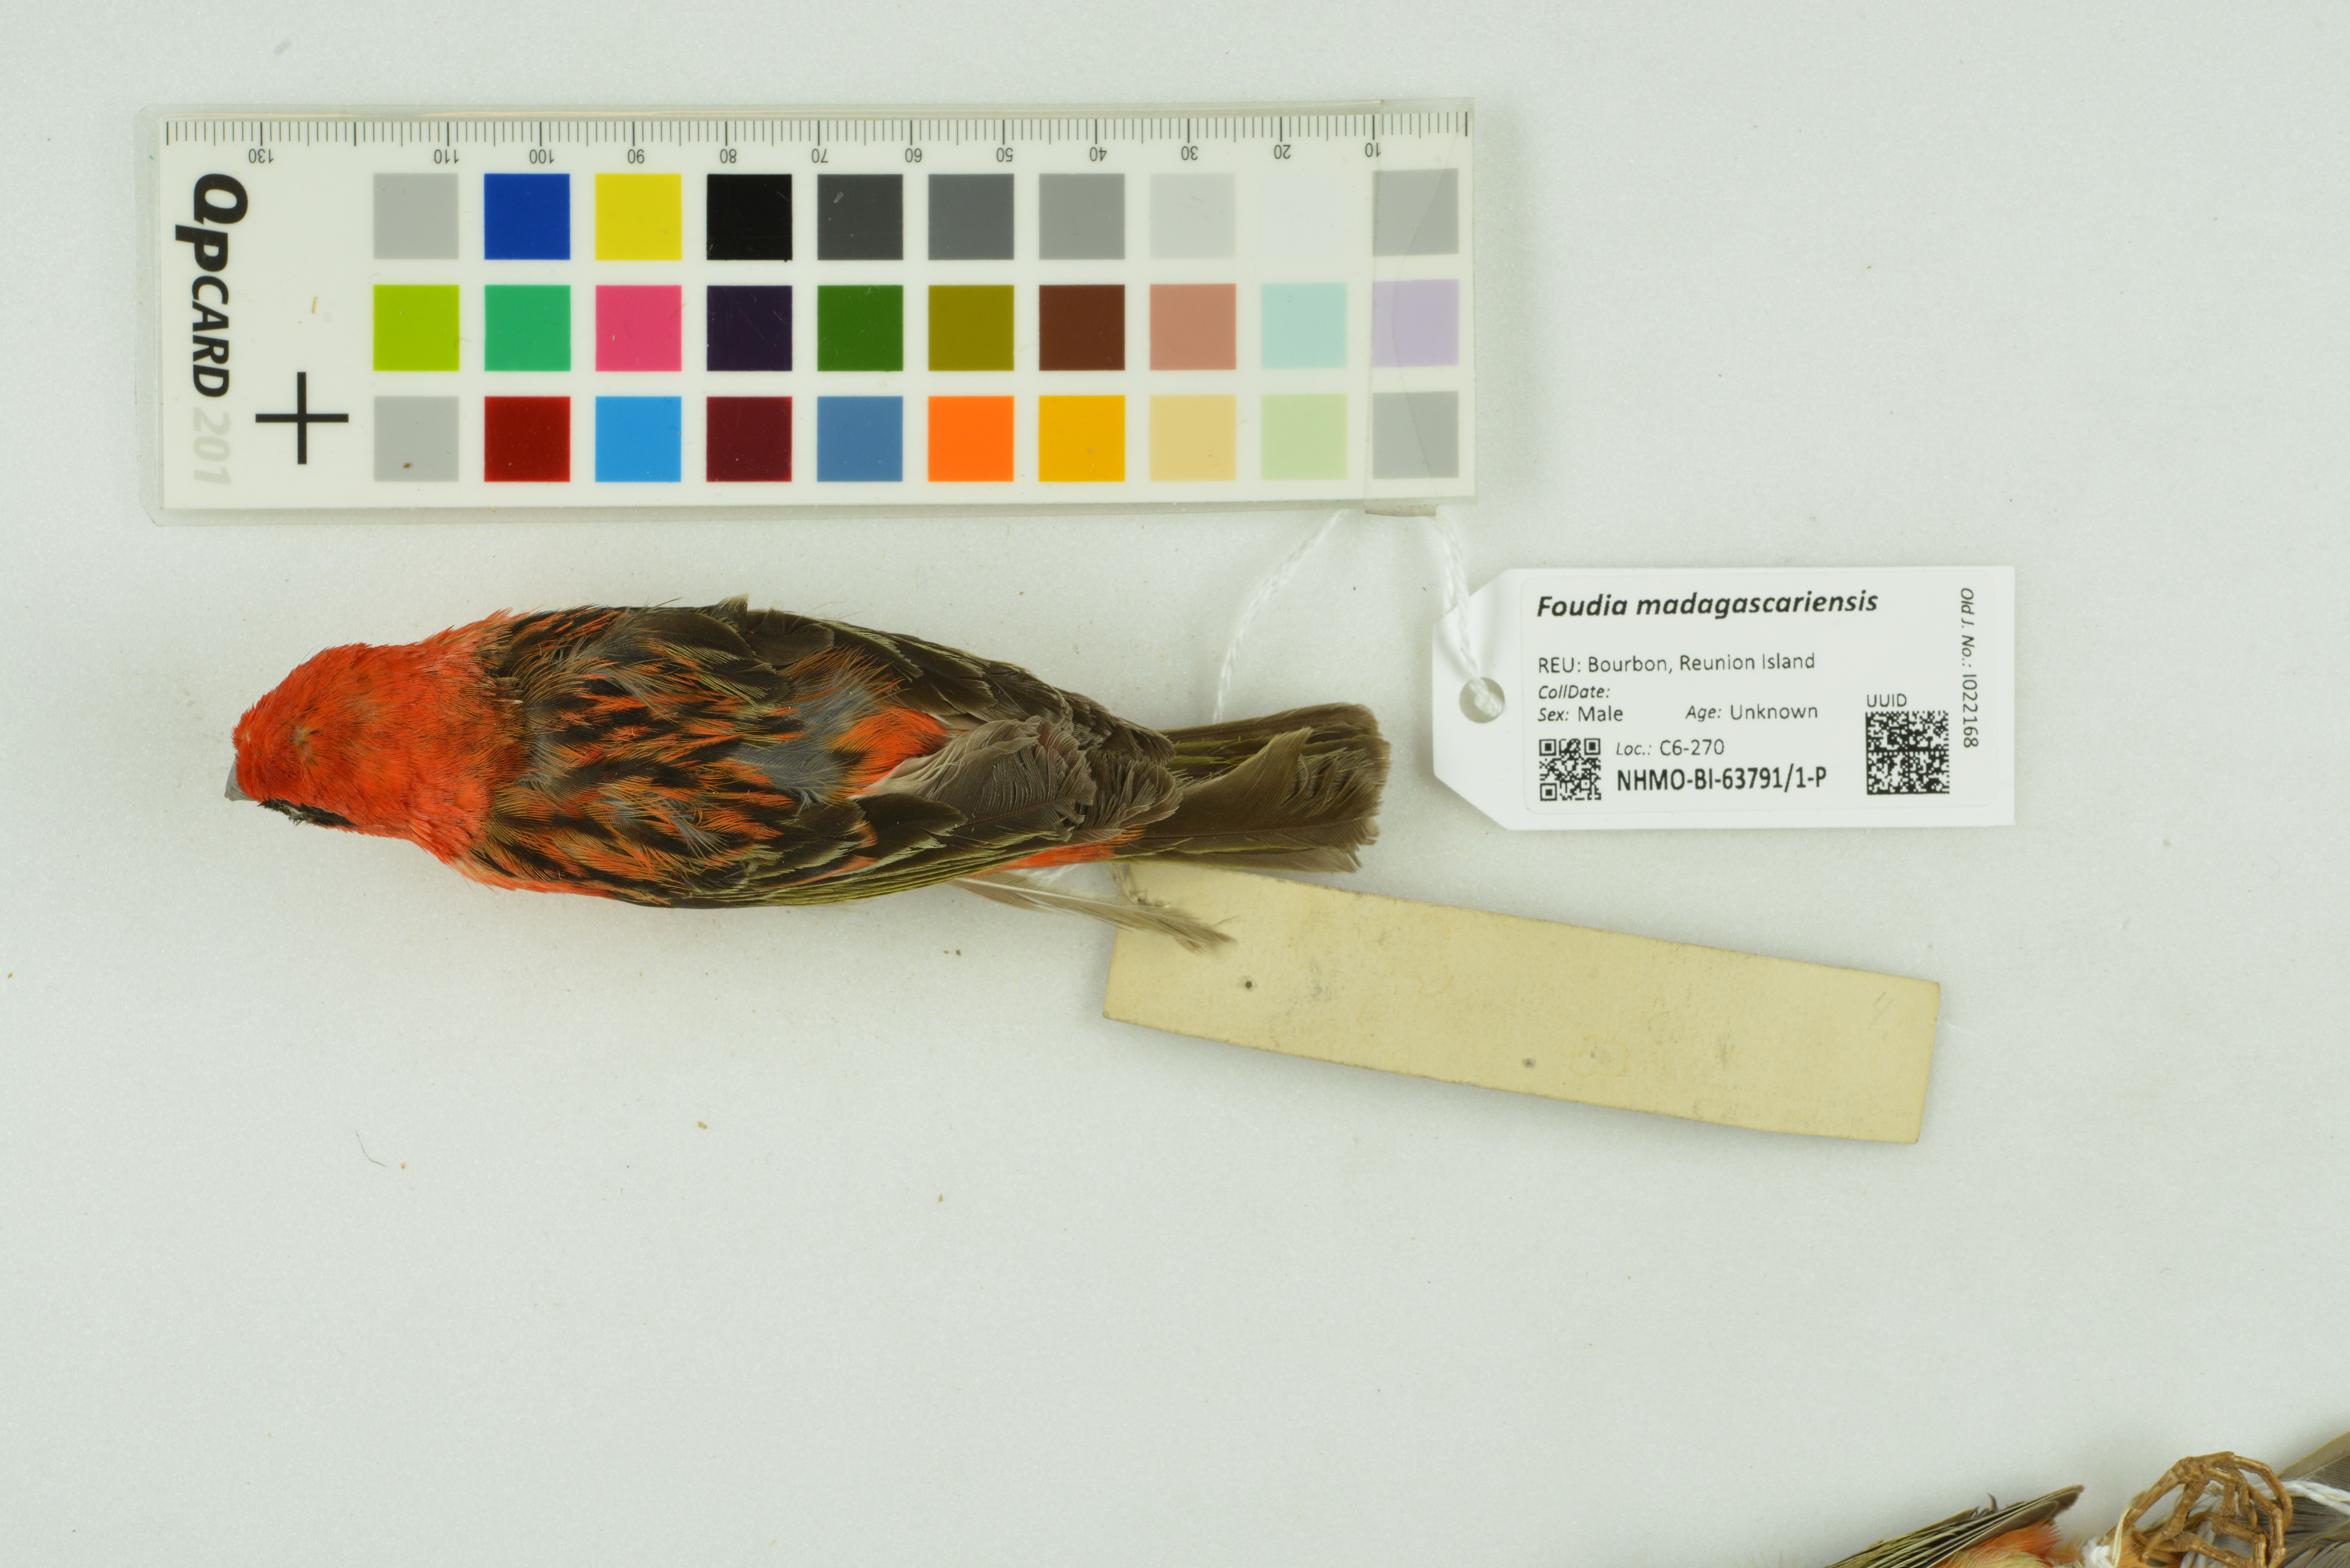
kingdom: Animalia
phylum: Chordata
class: Aves
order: Passeriformes
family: Ploceidae
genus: Foudia
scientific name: Foudia madagascariensis
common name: Red fody
